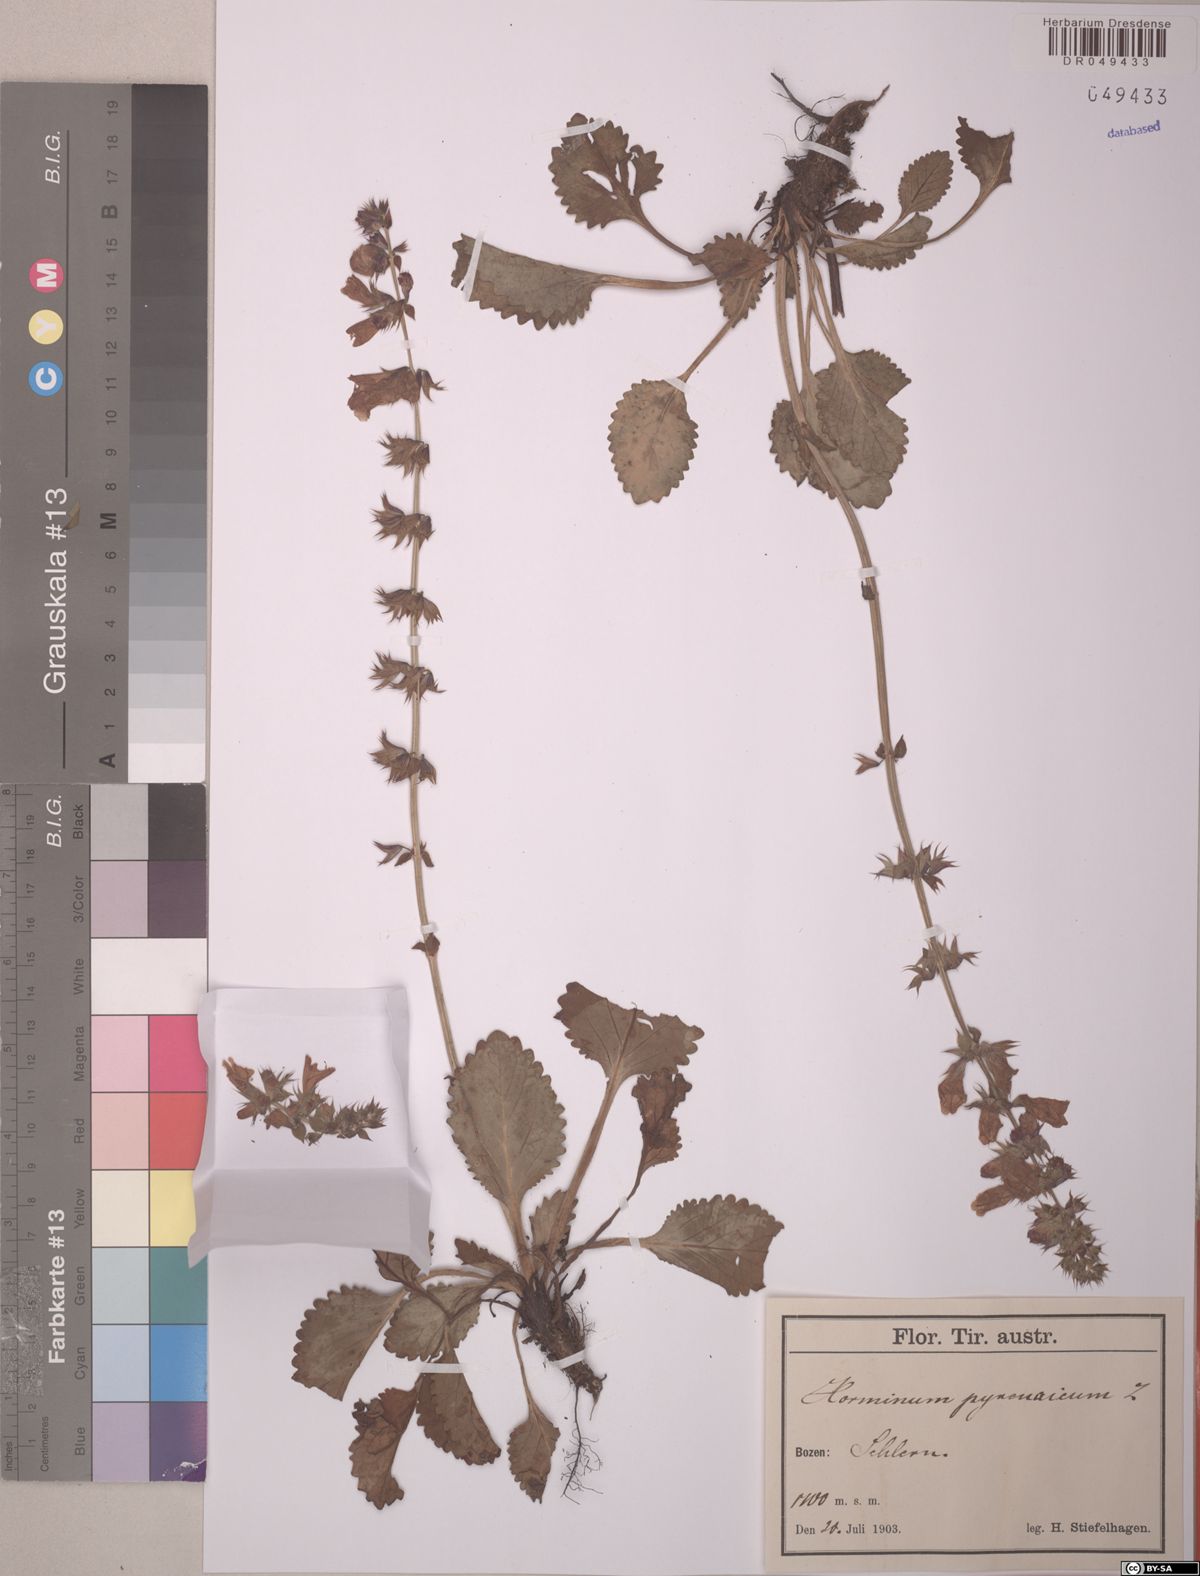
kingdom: Plantae
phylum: Tracheophyta
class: Magnoliopsida
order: Lamiales
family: Lamiaceae
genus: Horminum
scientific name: Horminum pyrenaicum
